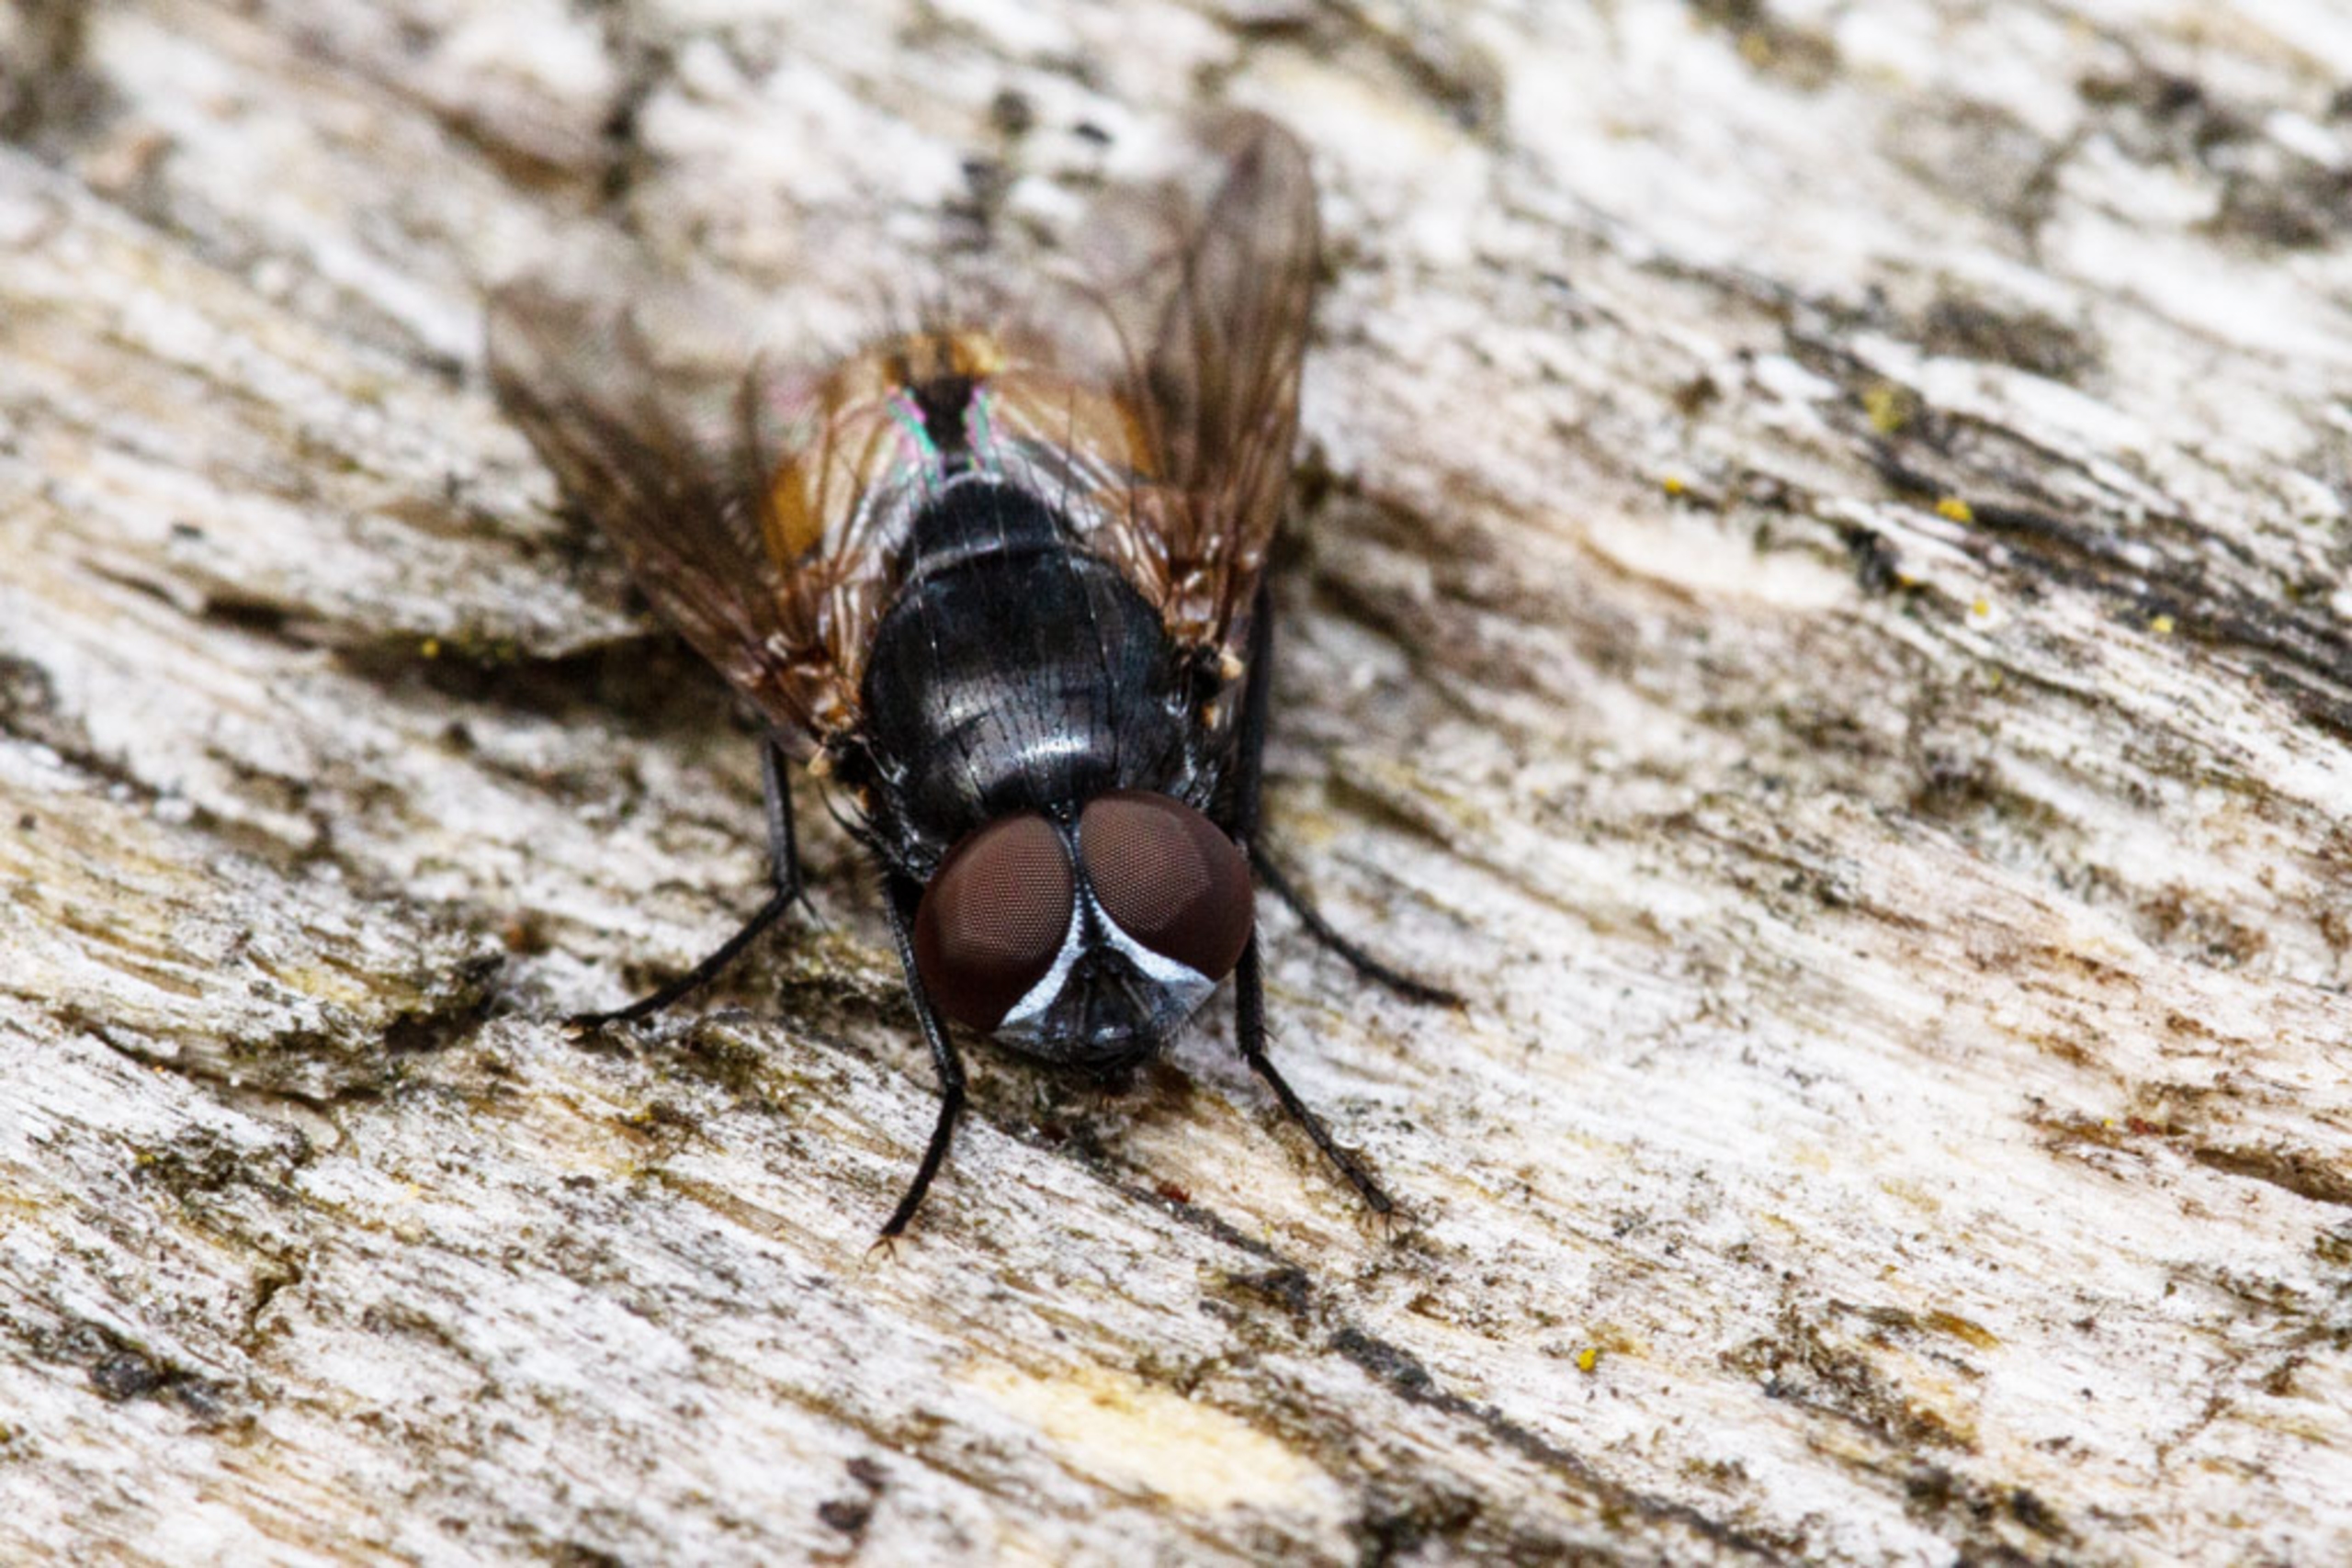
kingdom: Animalia
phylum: Arthropoda
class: Insecta
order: Diptera
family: Muscidae
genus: Musca
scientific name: Musca autumnalis
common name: Kvægflue
